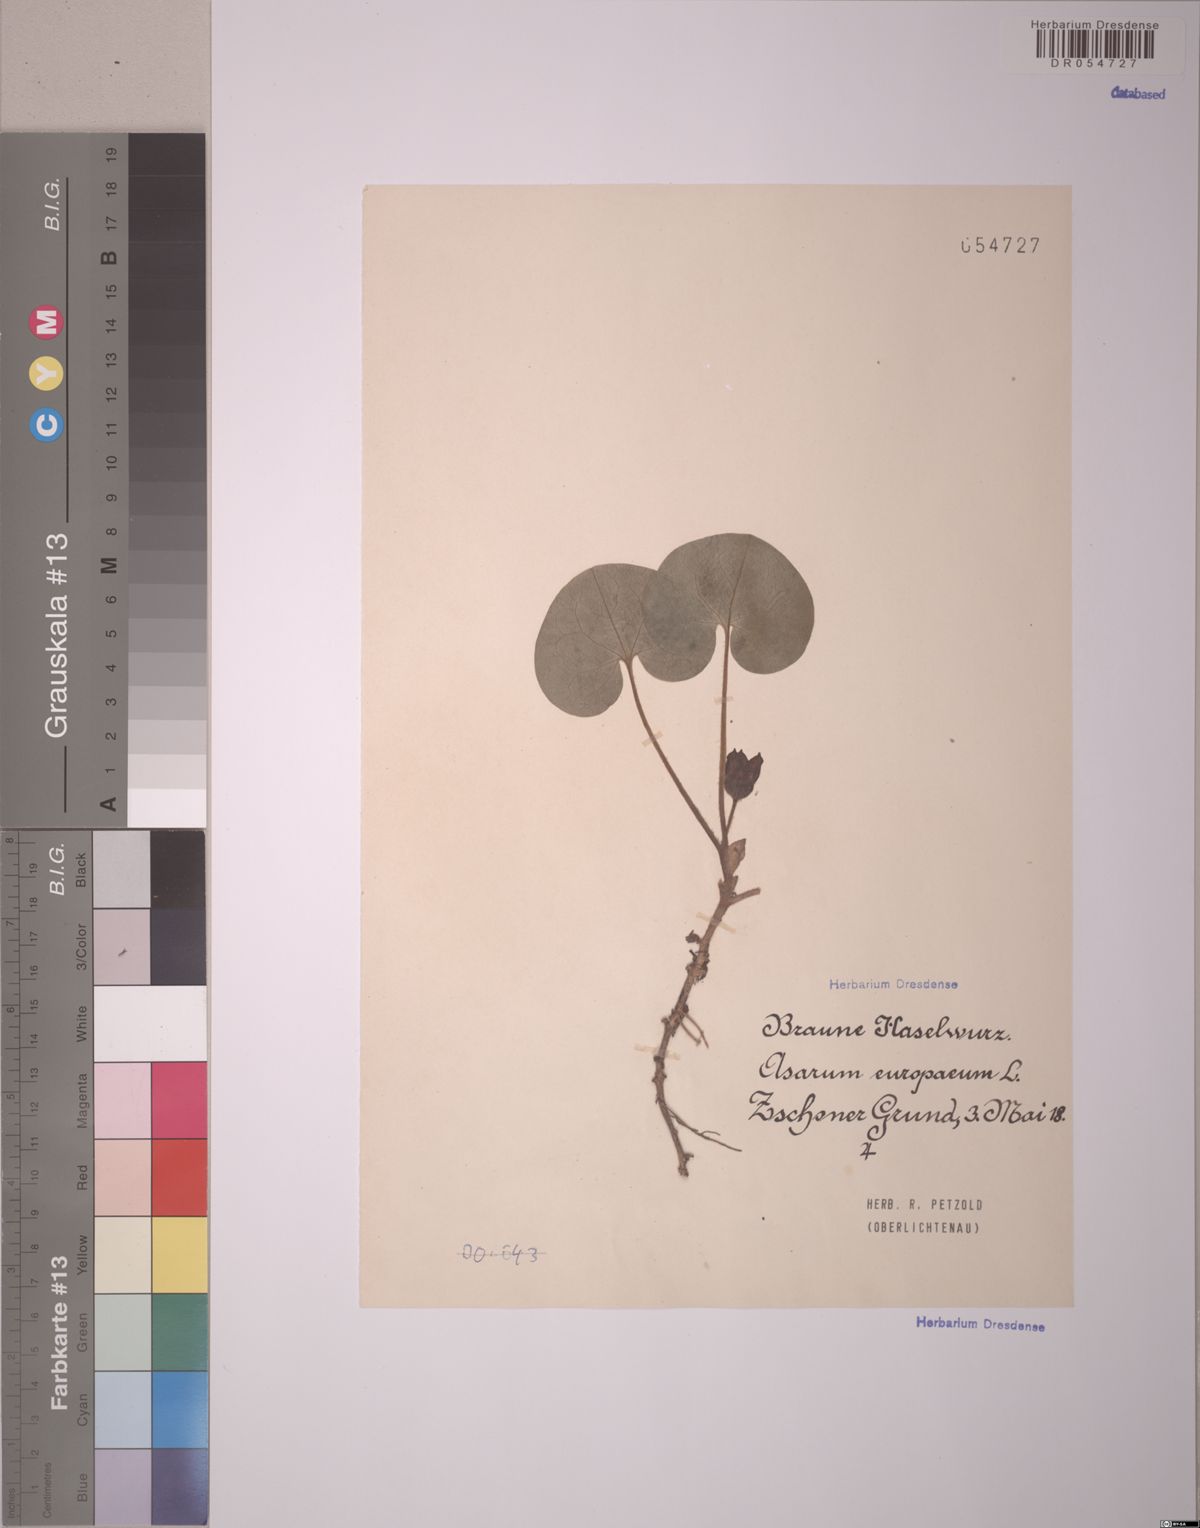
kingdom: Plantae
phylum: Tracheophyta
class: Magnoliopsida
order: Piperales
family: Aristolochiaceae
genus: Asarum
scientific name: Asarum europaeum
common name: Asarabacca
